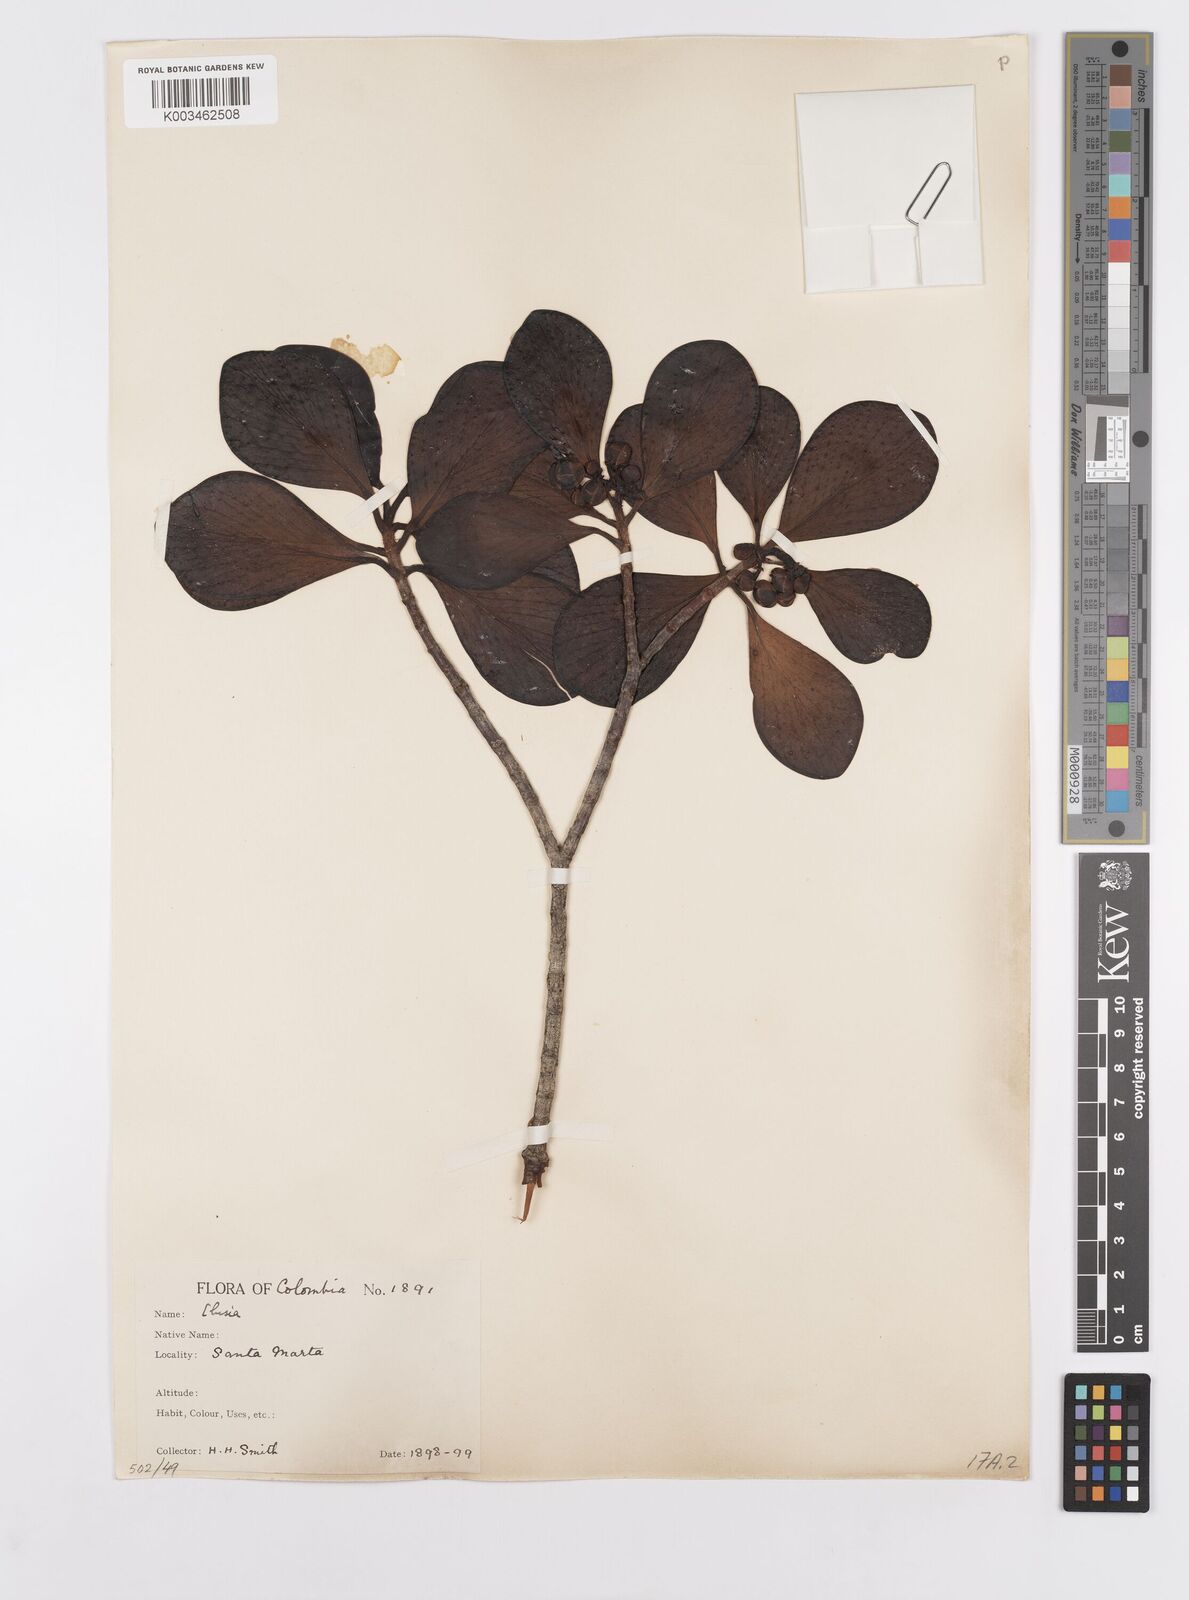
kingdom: Plantae
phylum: Tracheophyta
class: Magnoliopsida
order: Malpighiales
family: Clusiaceae
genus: Clusia
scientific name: Clusia minor
